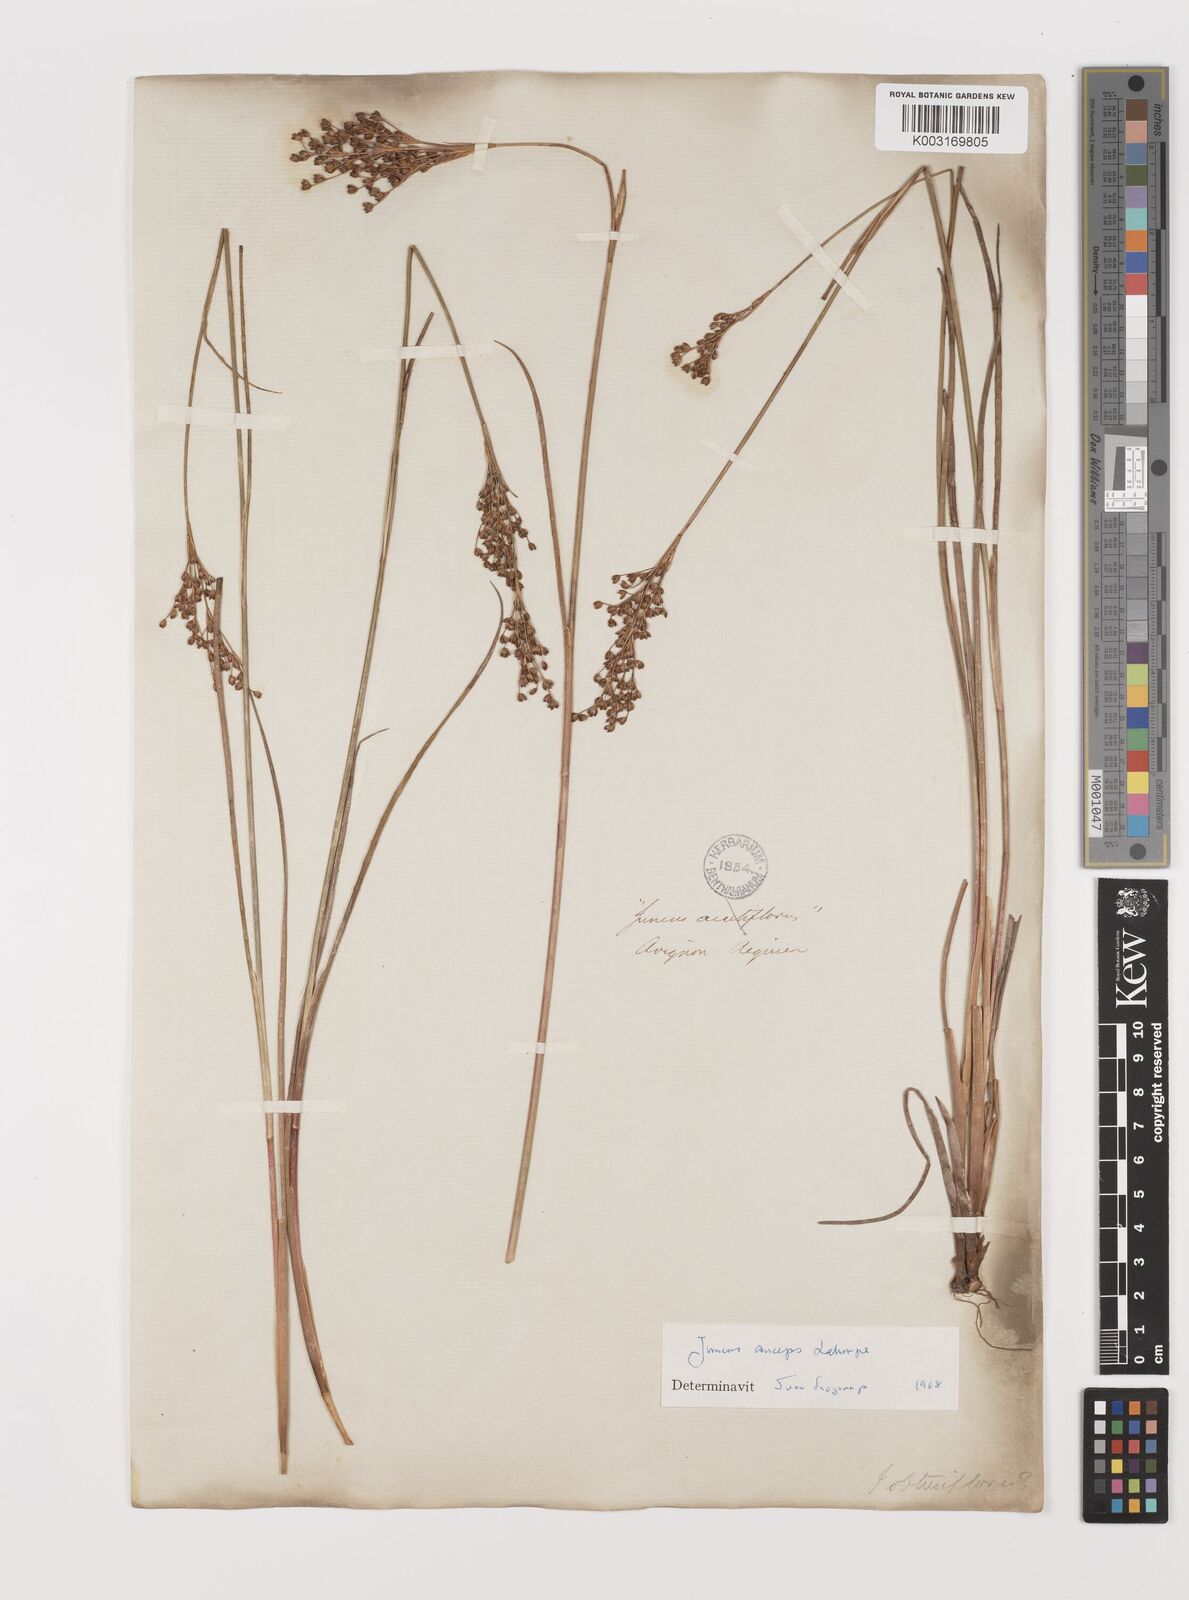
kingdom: Plantae
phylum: Tracheophyta
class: Liliopsida
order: Poales
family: Juncaceae
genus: Juncus
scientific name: Juncus anceps
